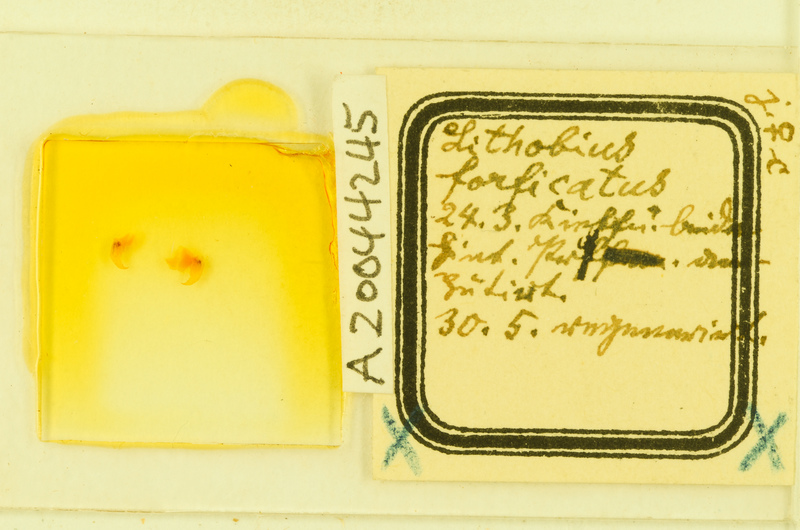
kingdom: Animalia
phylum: Arthropoda
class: Chilopoda
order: Lithobiomorpha
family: Lithobiidae
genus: Lithobius
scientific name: Lithobius forficatus
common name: Centipede
